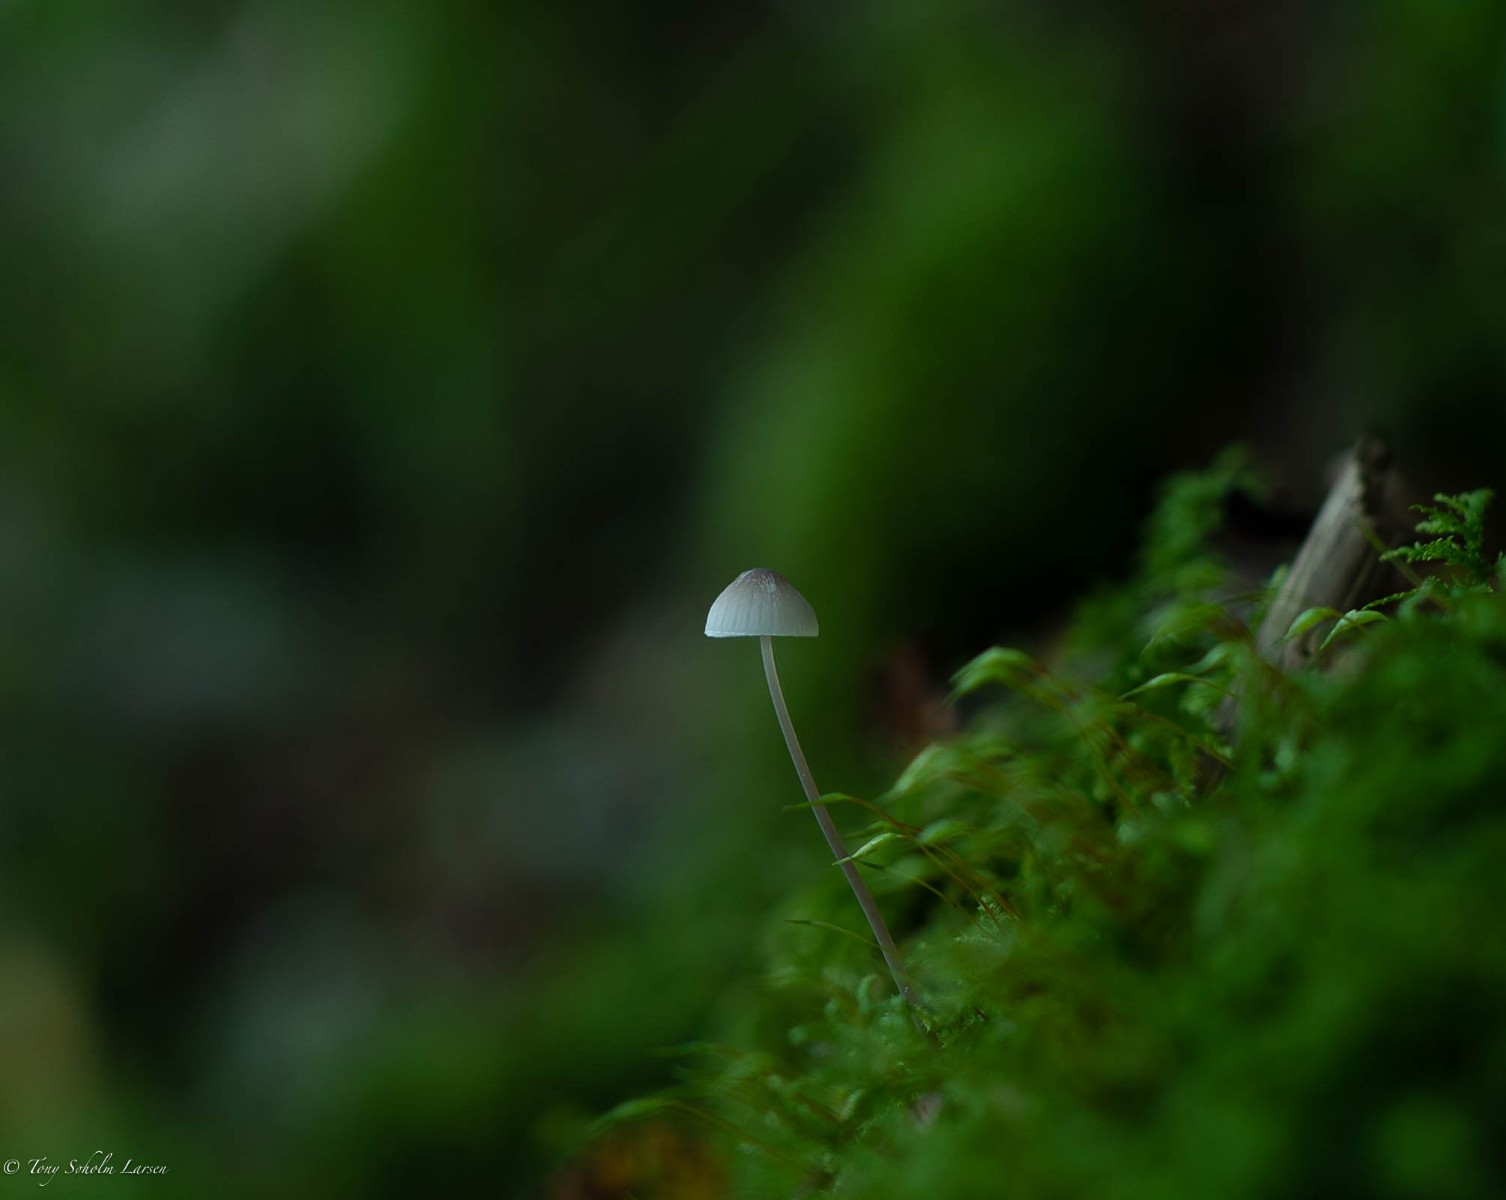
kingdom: Fungi
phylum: Basidiomycota
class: Agaricomycetes
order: Agaricales
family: Mycenaceae
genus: Mycena
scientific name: Mycena
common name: huesvamp
